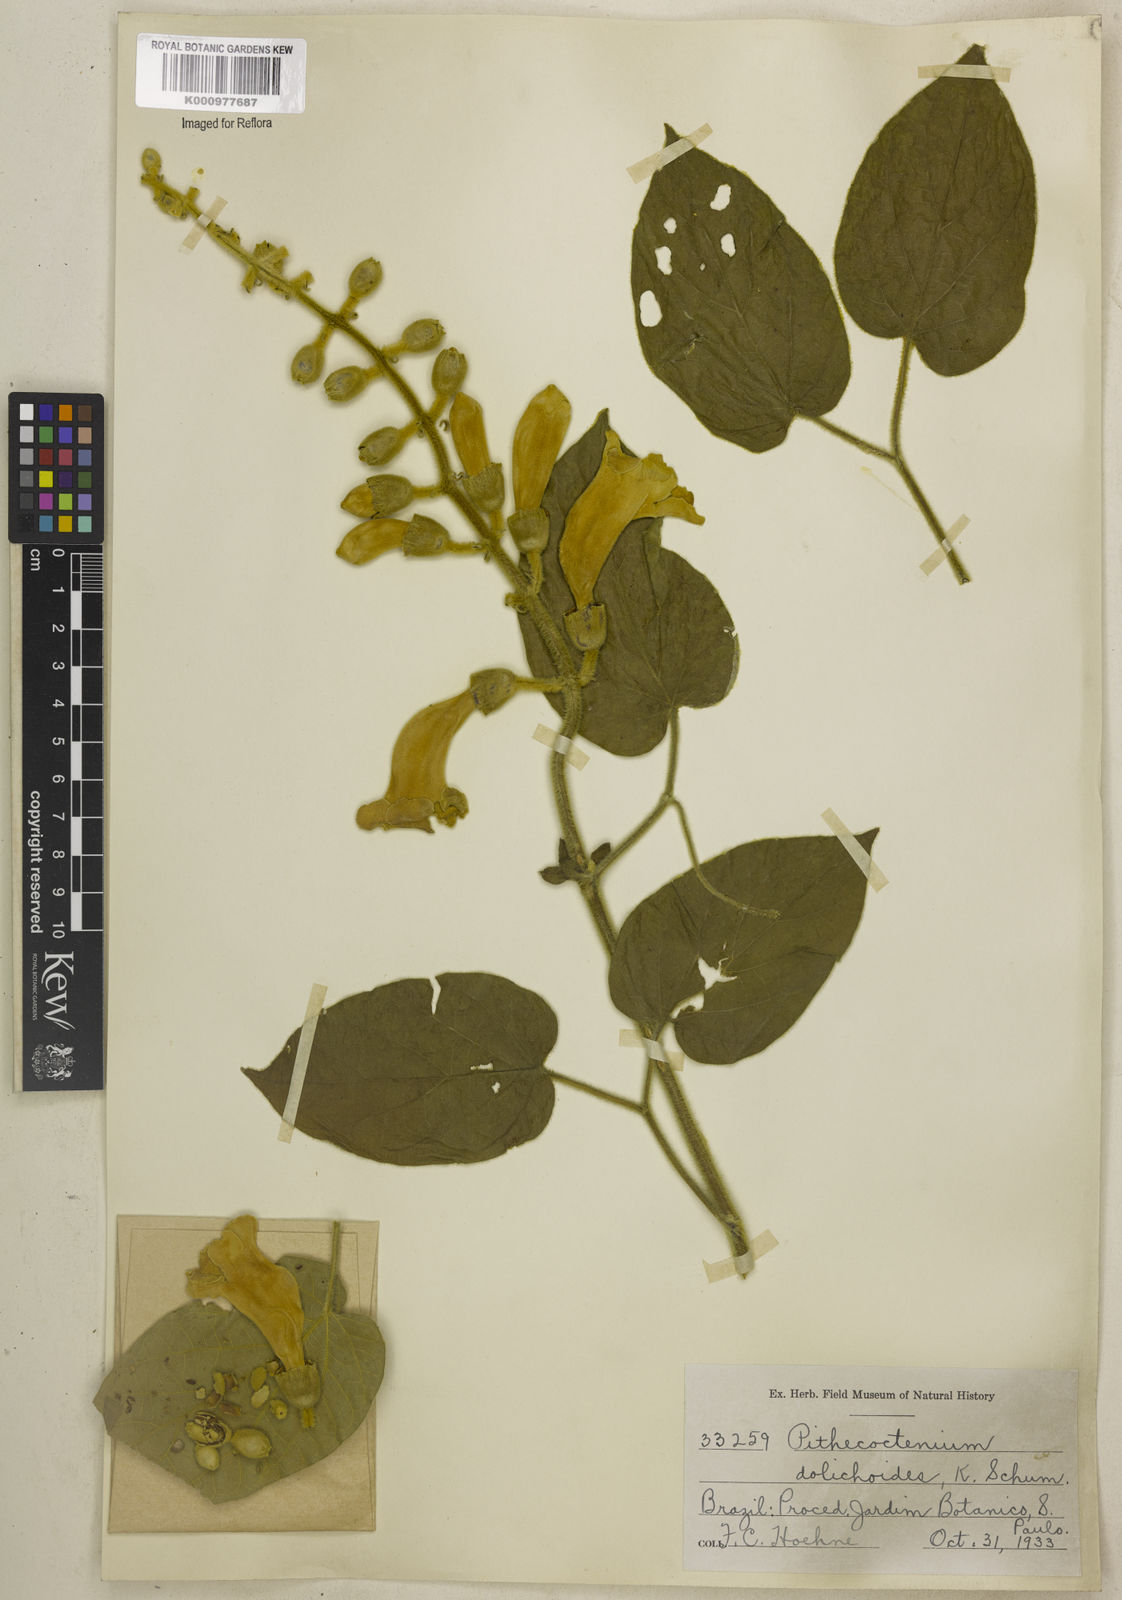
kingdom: Plantae
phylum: Tracheophyta
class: Magnoliopsida
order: Lamiales
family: Bignoniaceae
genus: Amphilophium
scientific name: Amphilophium dolichoides
